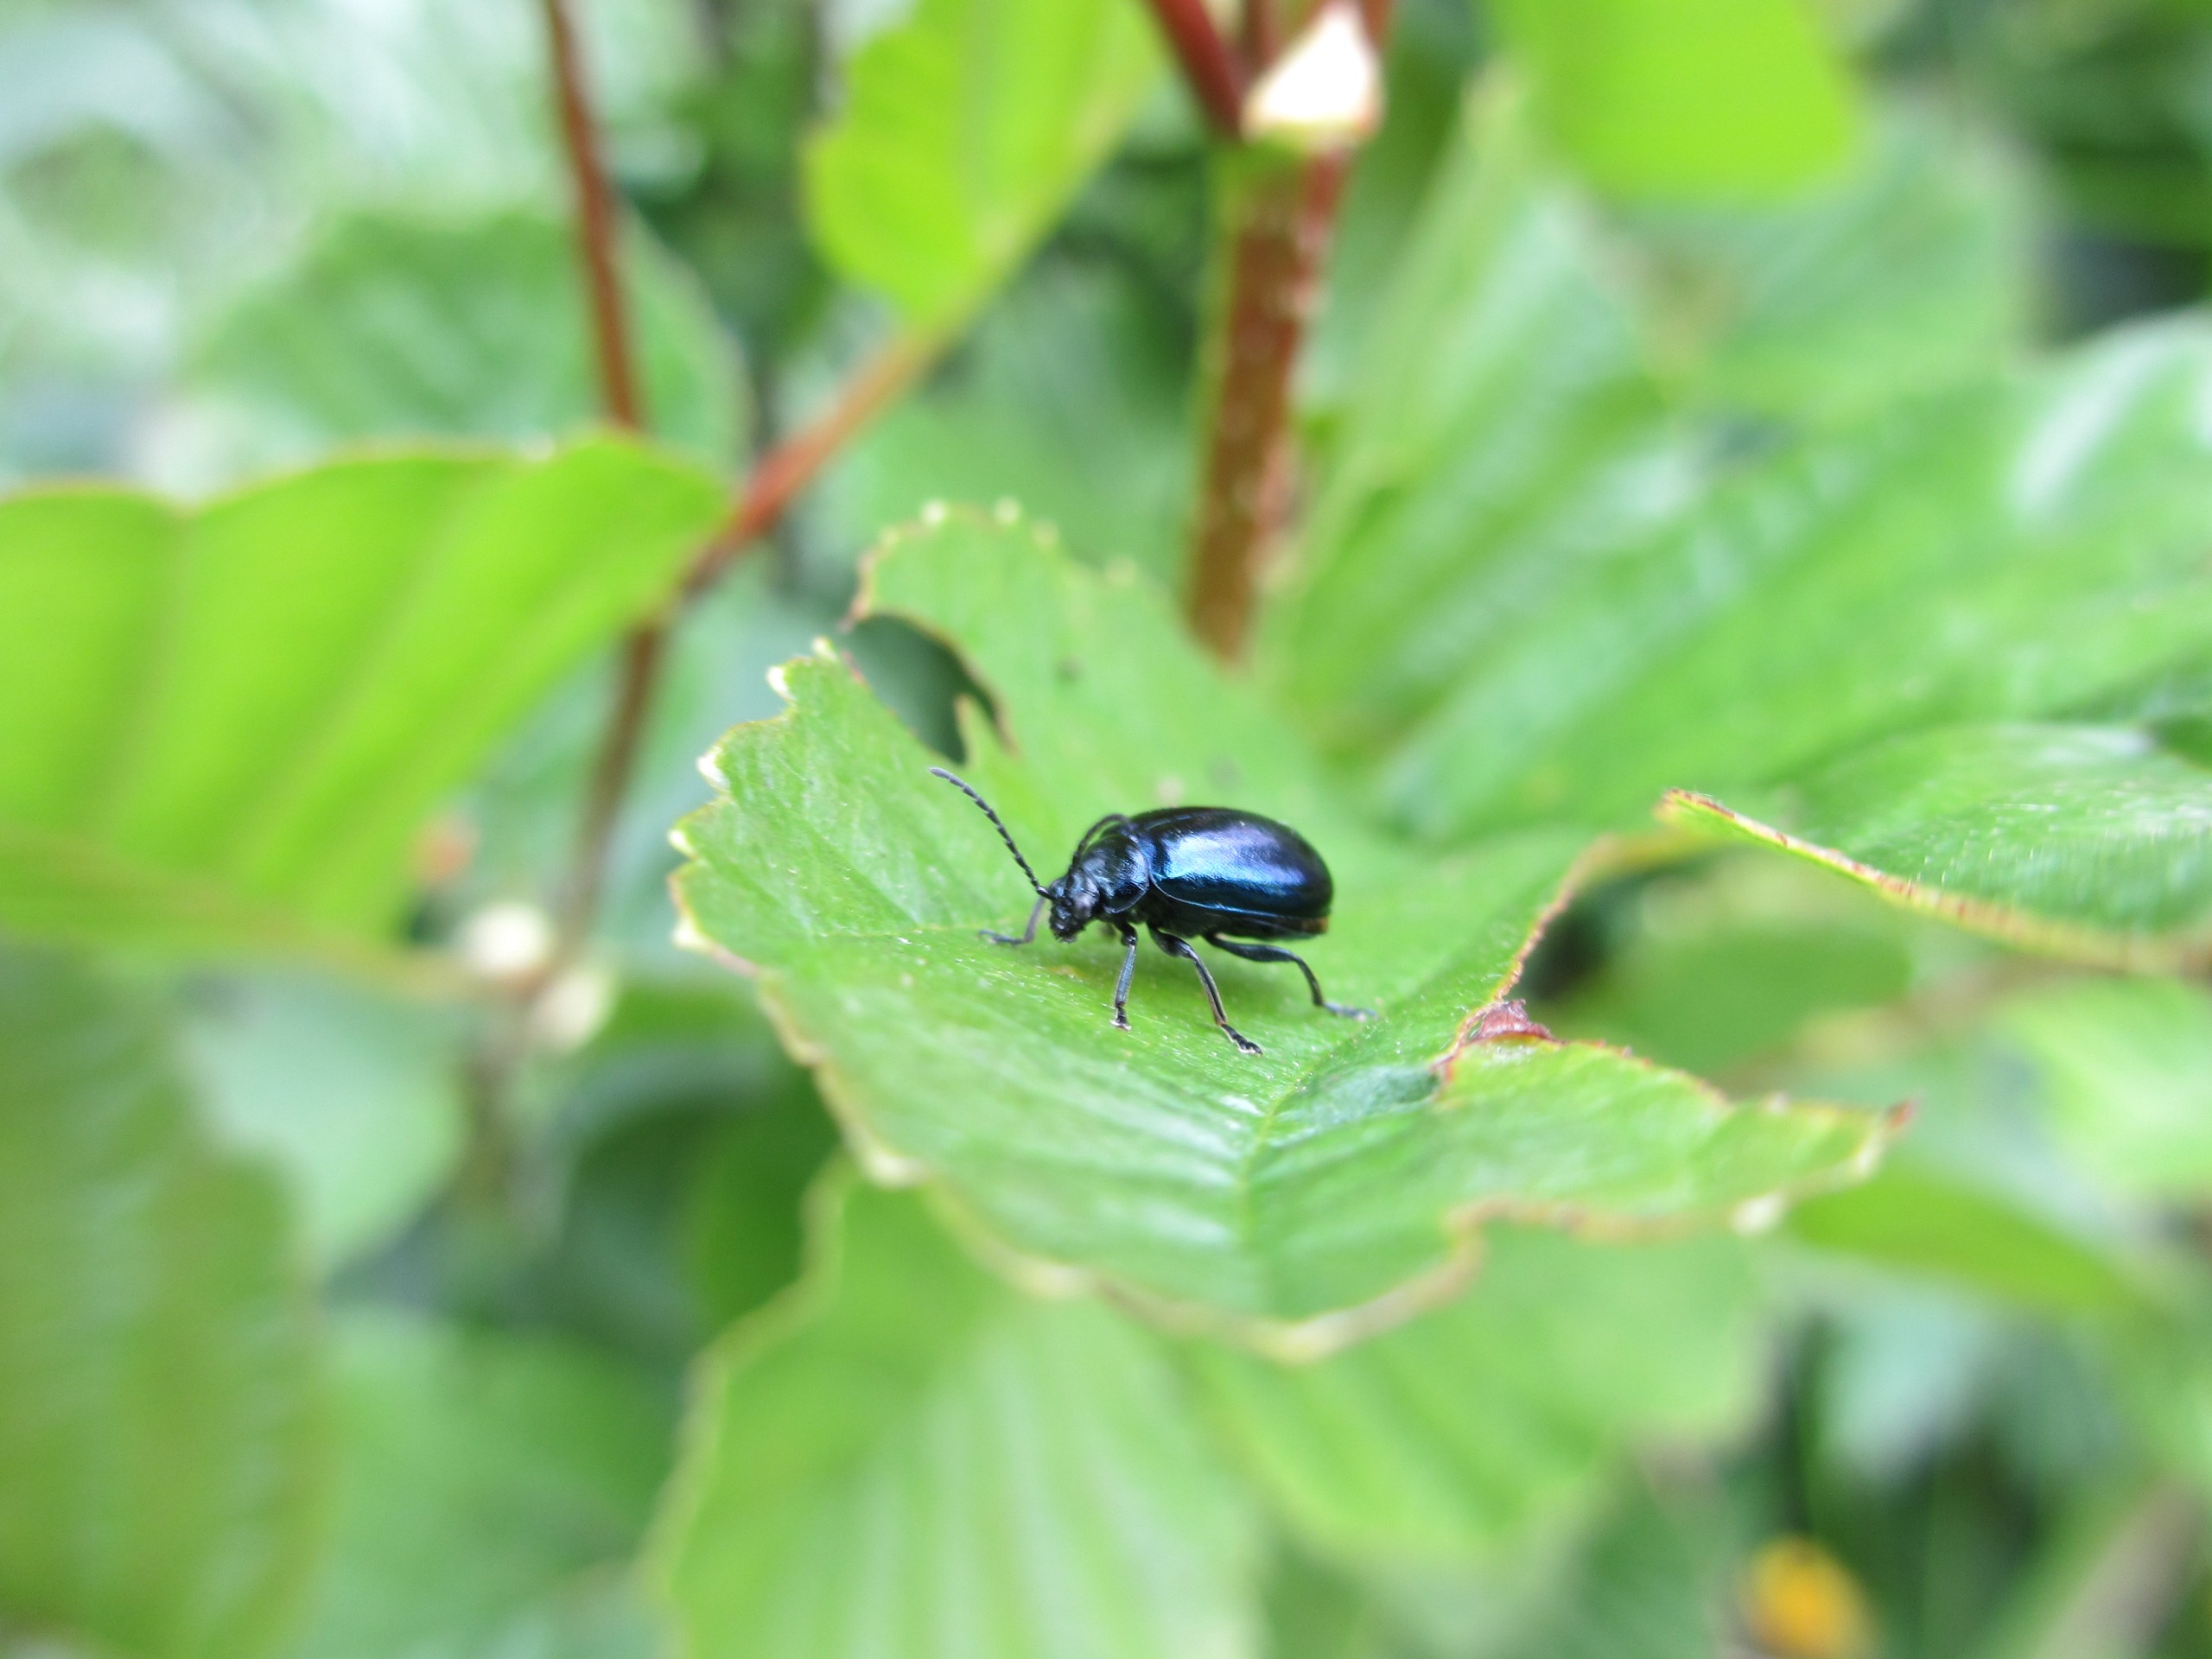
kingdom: Animalia
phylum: Arthropoda
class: Insecta
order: Coleoptera
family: Chrysomelidae
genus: Agelastica
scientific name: Agelastica alni
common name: Ellebladbille
